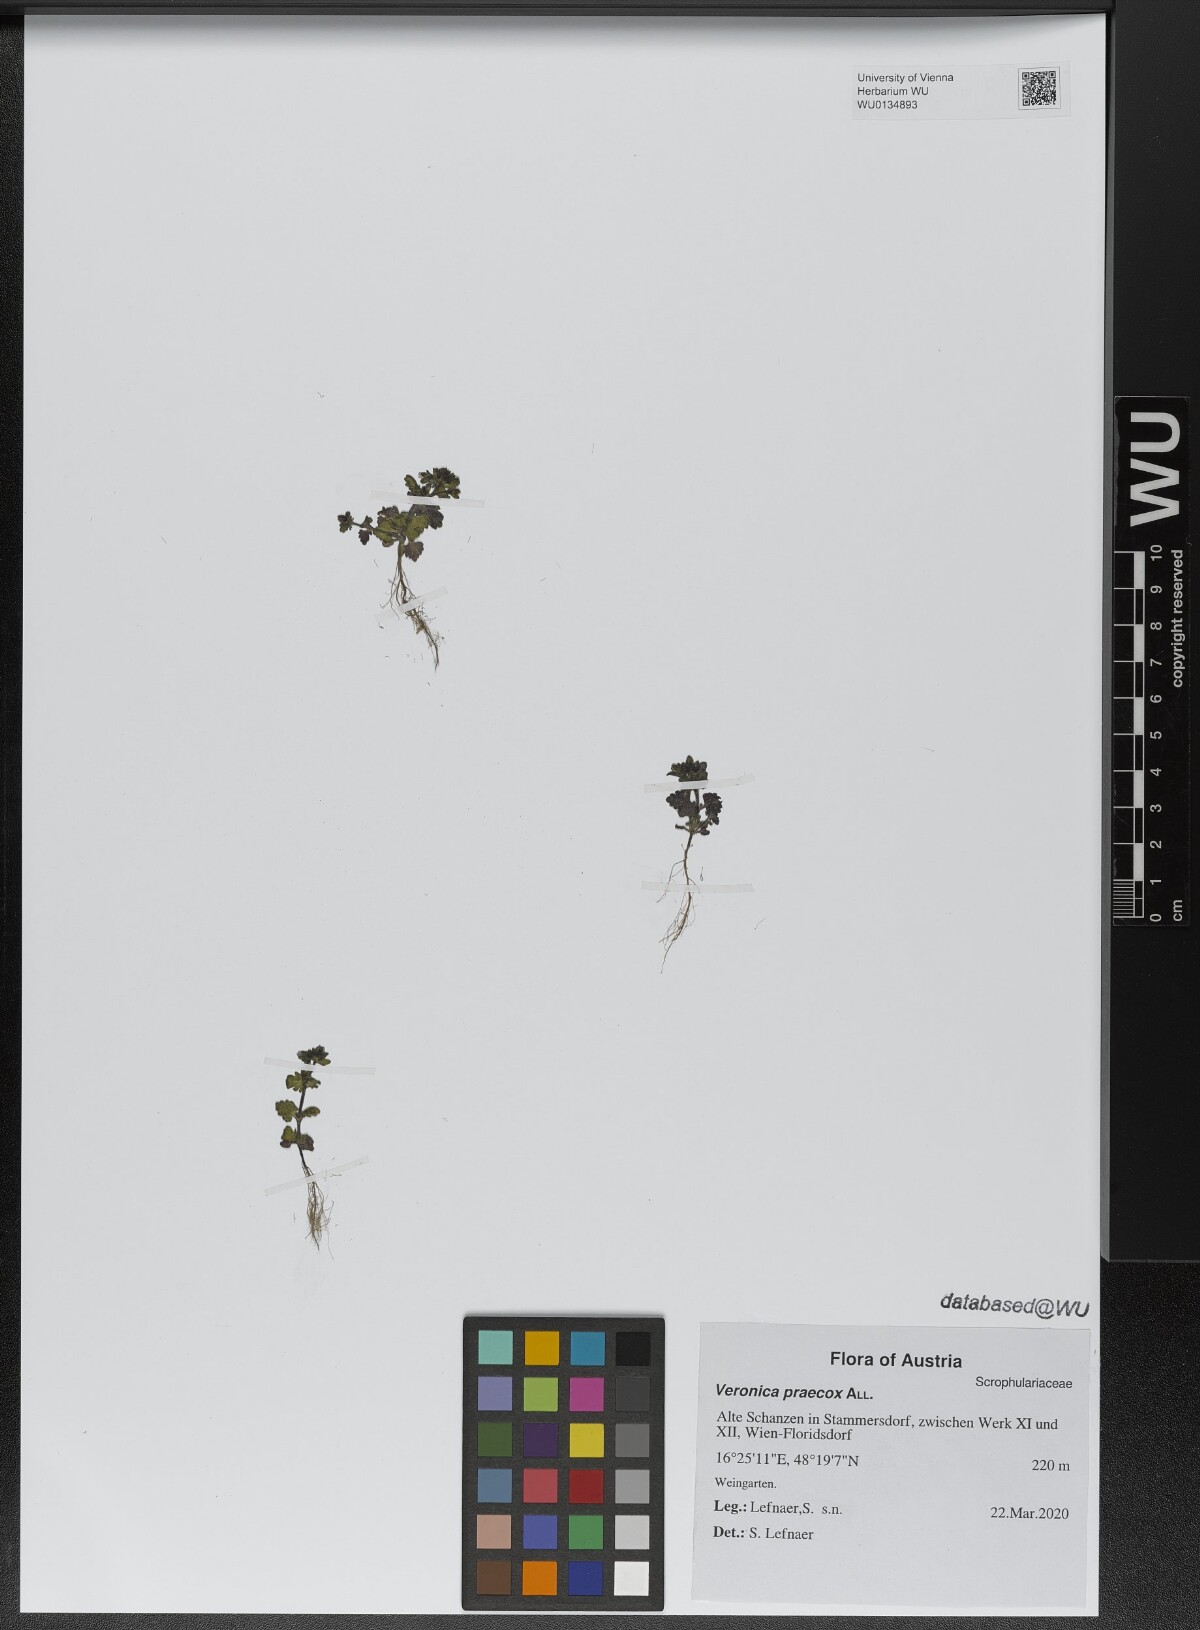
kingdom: Plantae
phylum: Tracheophyta
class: Magnoliopsida
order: Lamiales
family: Plantaginaceae
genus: Veronica
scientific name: Veronica praecox
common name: Breckland speedwell
